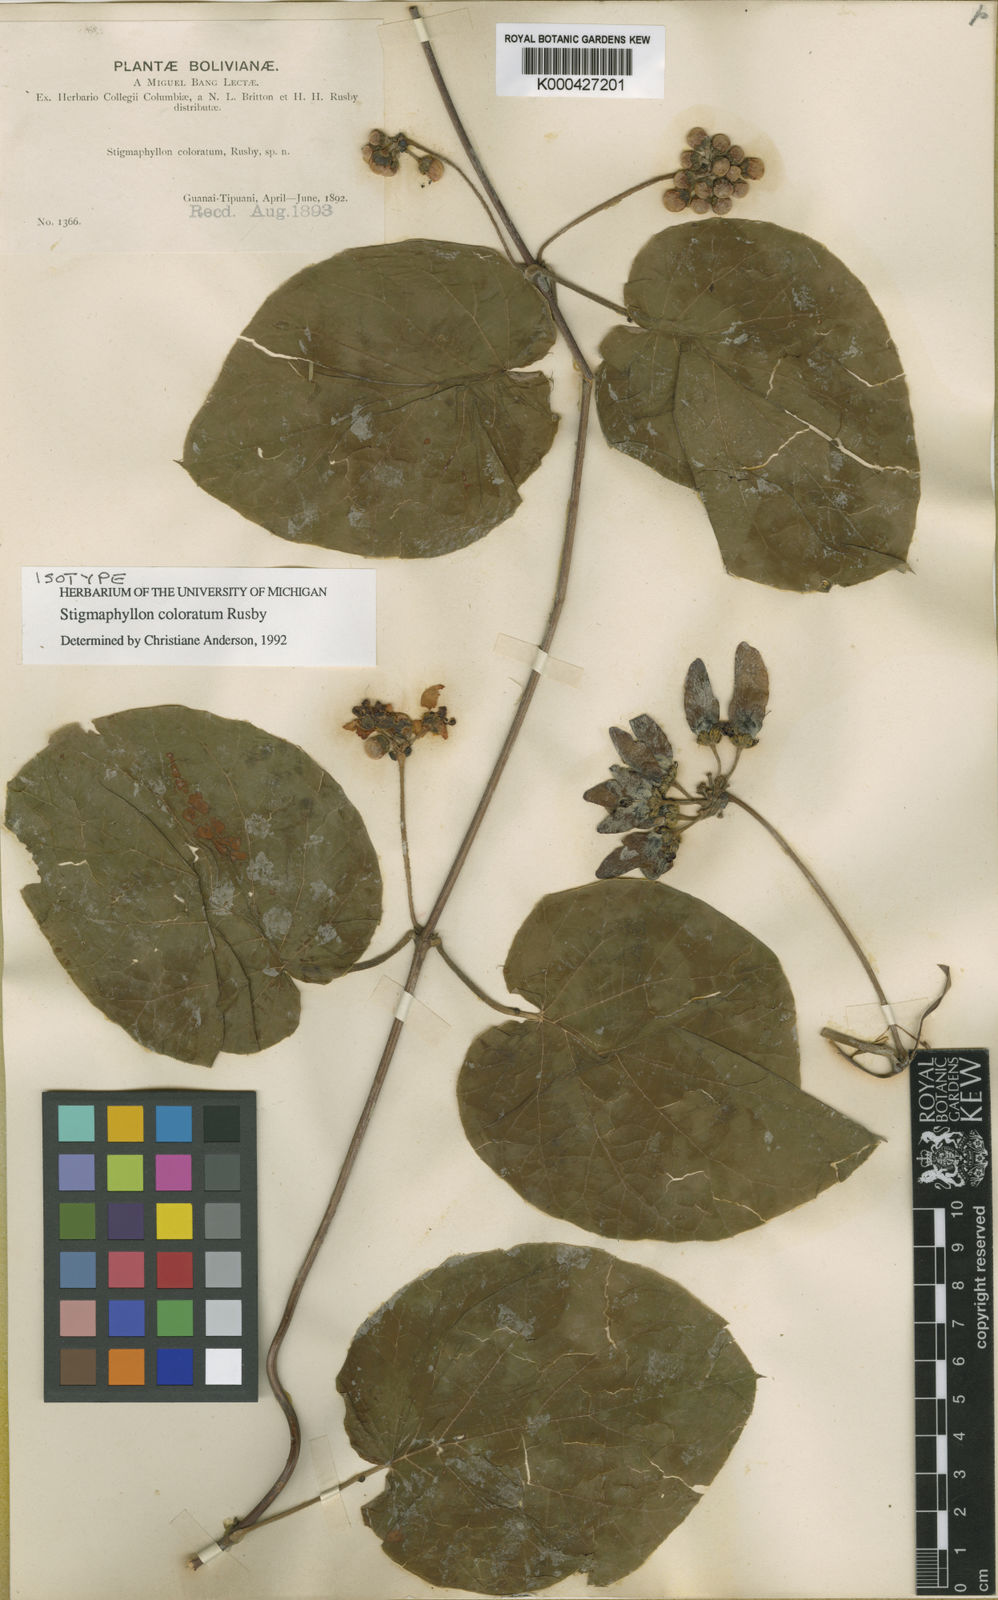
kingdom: Plantae
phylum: Tracheophyta
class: Magnoliopsida
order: Malpighiales
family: Malpighiaceae
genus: Stigmaphyllon
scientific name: Stigmaphyllon coloratum
